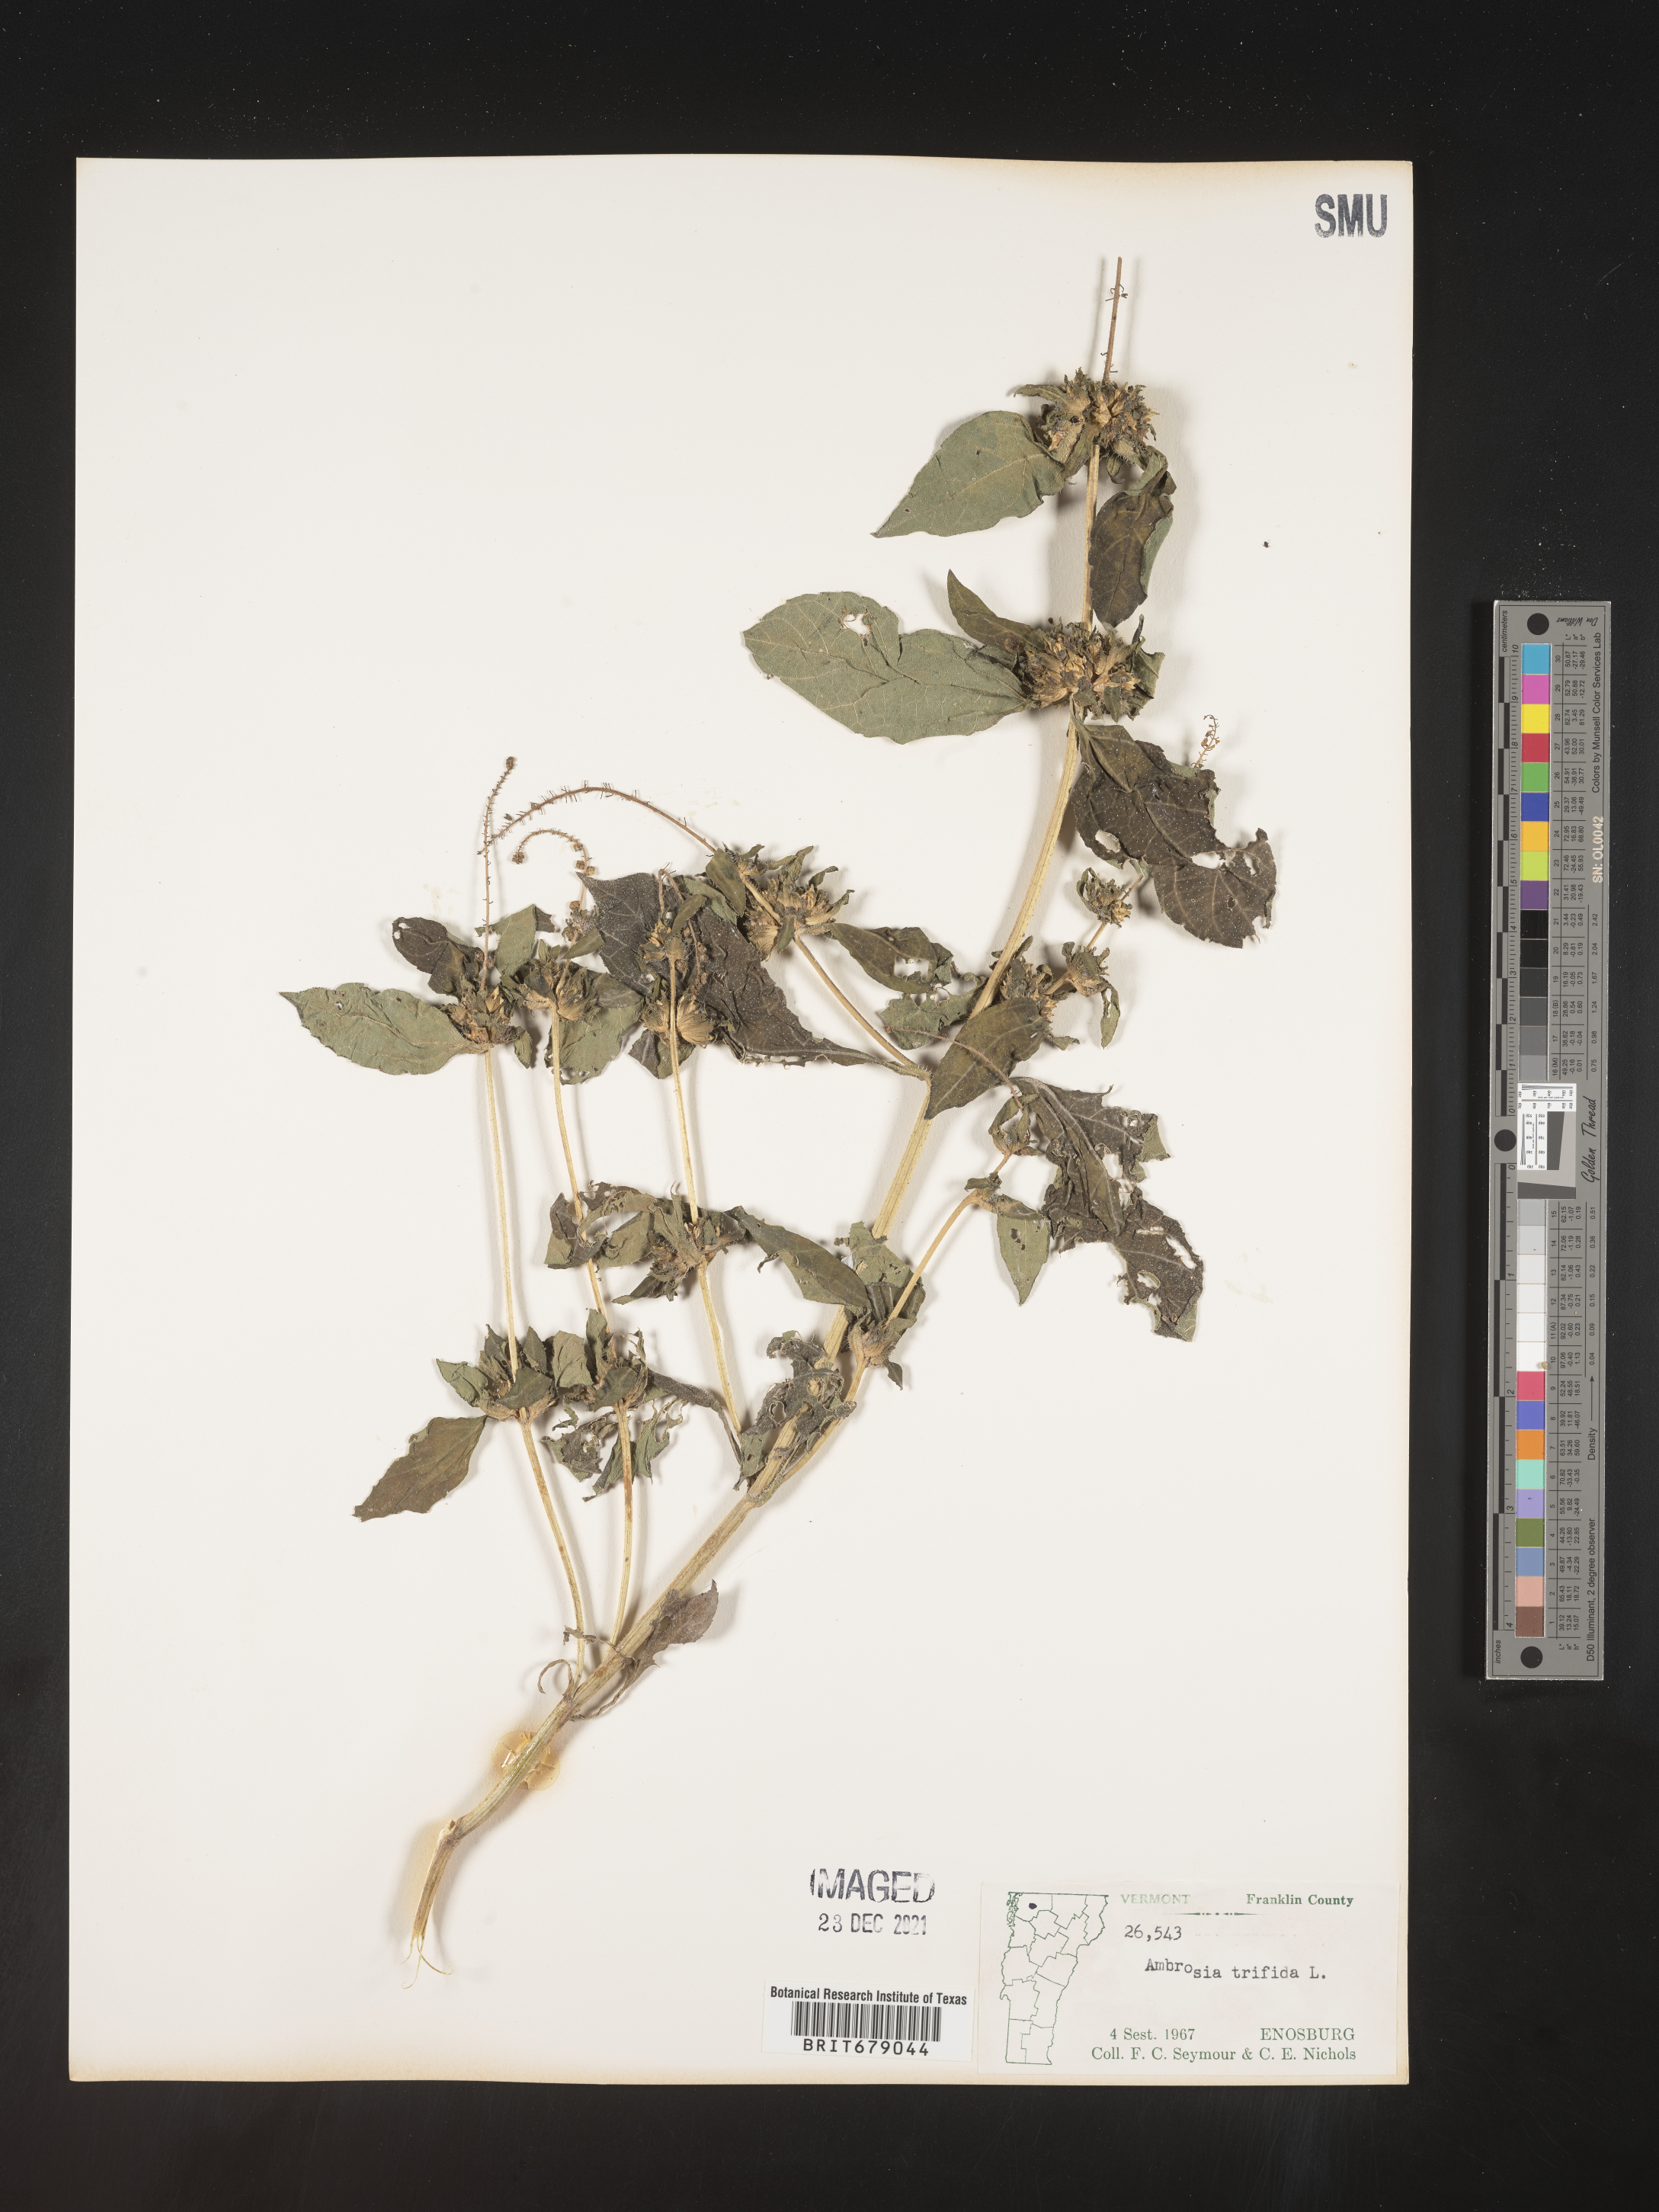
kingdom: Plantae
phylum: Tracheophyta
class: Magnoliopsida
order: Asterales
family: Asteraceae
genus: Ambrosia
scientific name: Ambrosia trifida
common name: Giant ragweed
